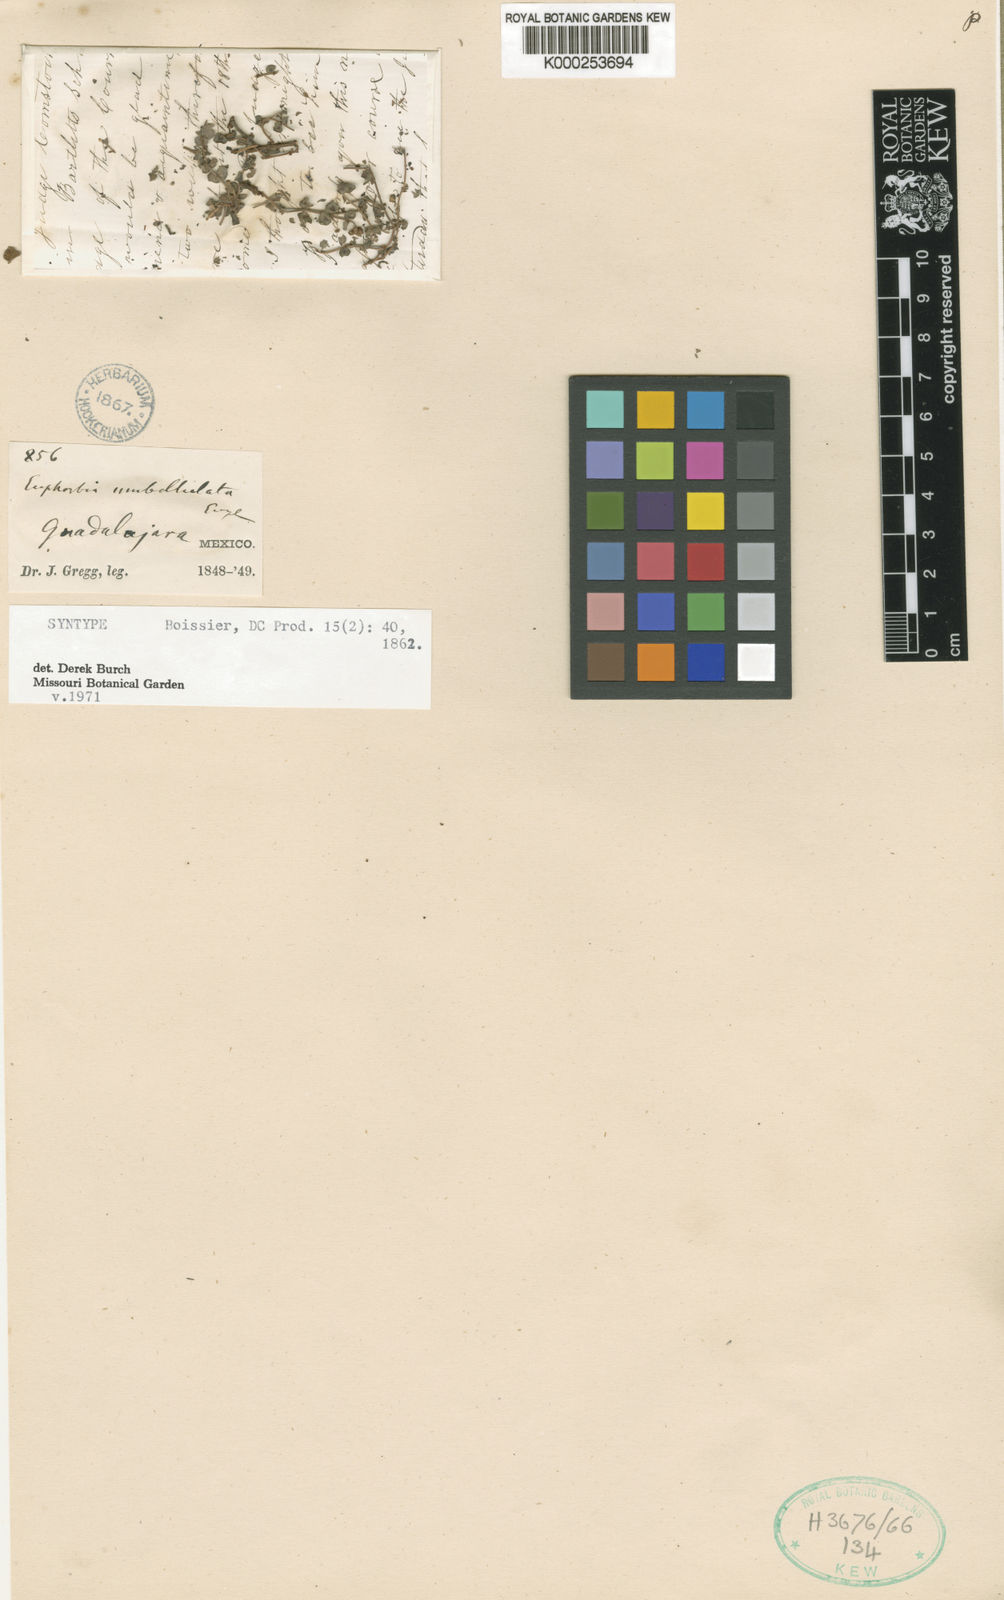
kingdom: Plantae
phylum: Tracheophyta
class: Magnoliopsida
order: Malpighiales
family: Euphorbiaceae
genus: Euphorbia
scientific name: Euphorbia umbellulata
